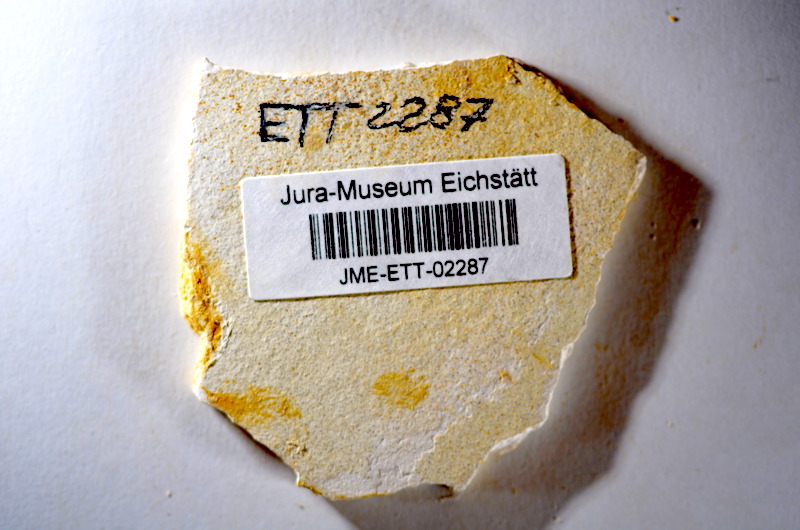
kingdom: Animalia
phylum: Chordata
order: Salmoniformes
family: Orthogonikleithridae
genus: Orthogonikleithrus
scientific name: Orthogonikleithrus hoelli
